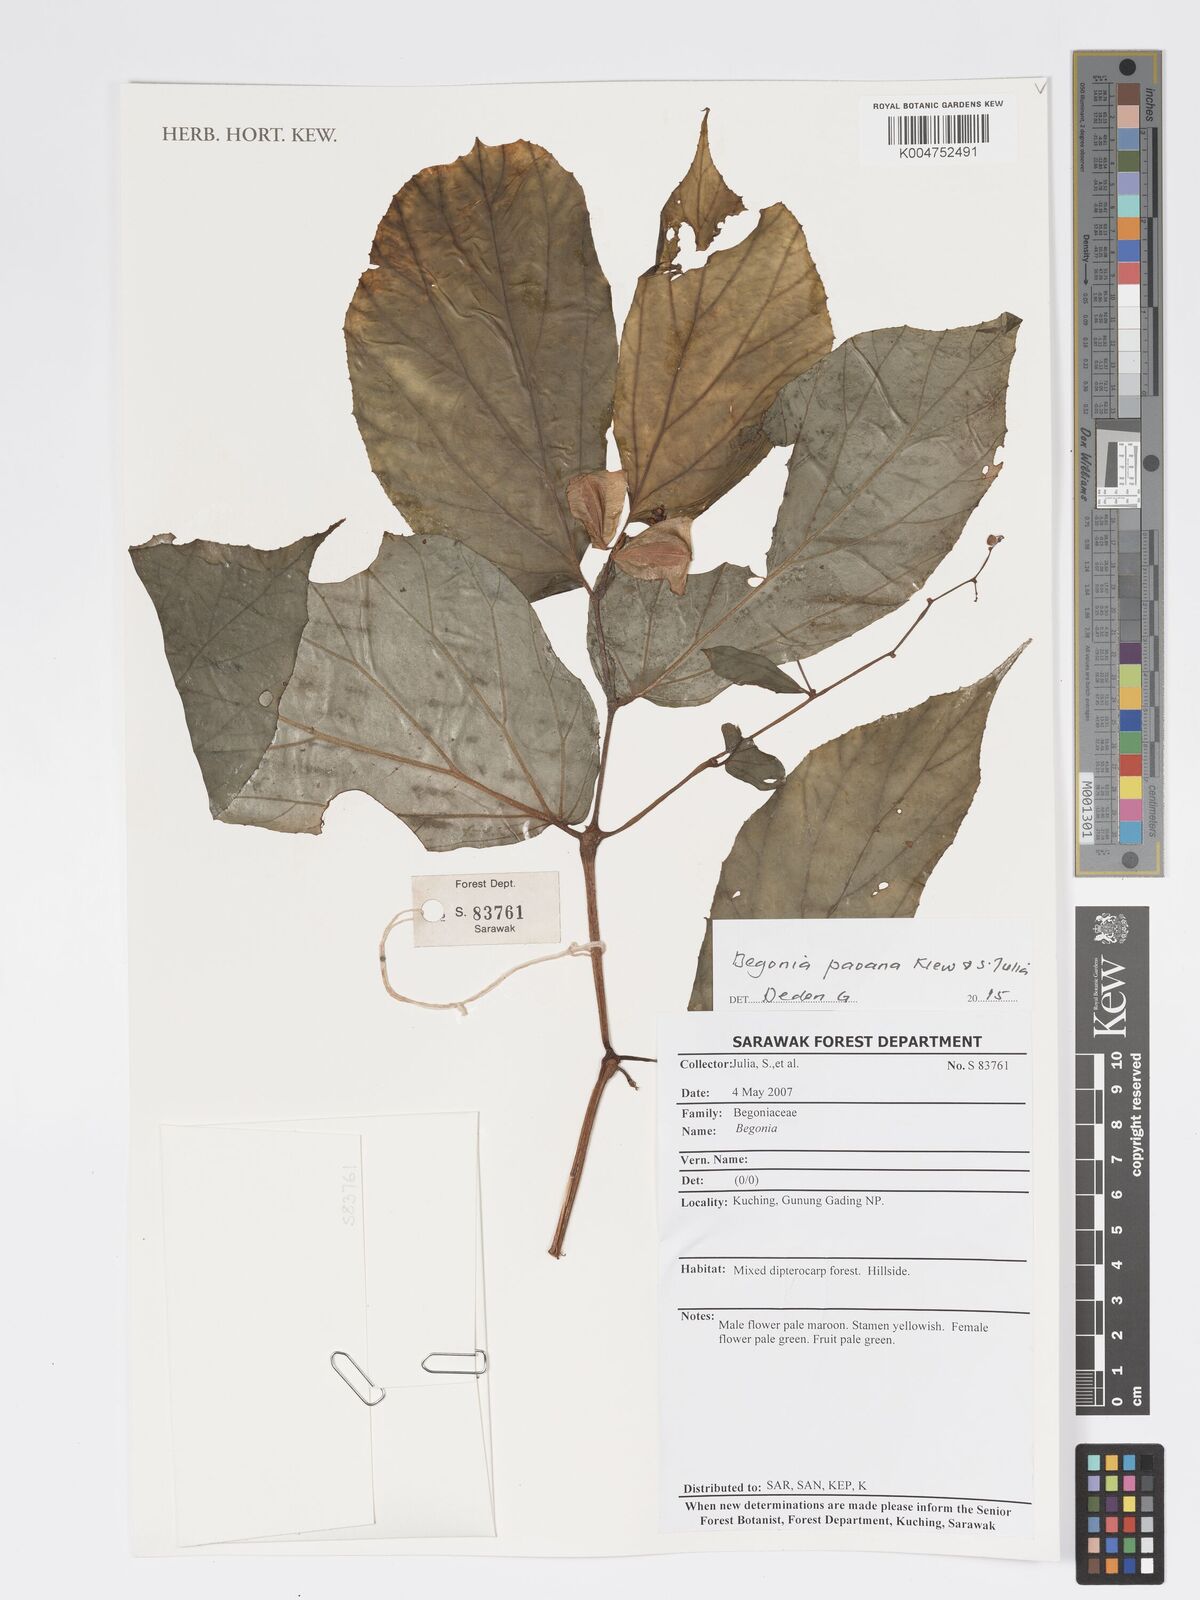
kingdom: Plantae
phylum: Tracheophyta
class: Magnoliopsida
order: Cucurbitales
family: Begoniaceae
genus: Begonia
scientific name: Begonia paoana
